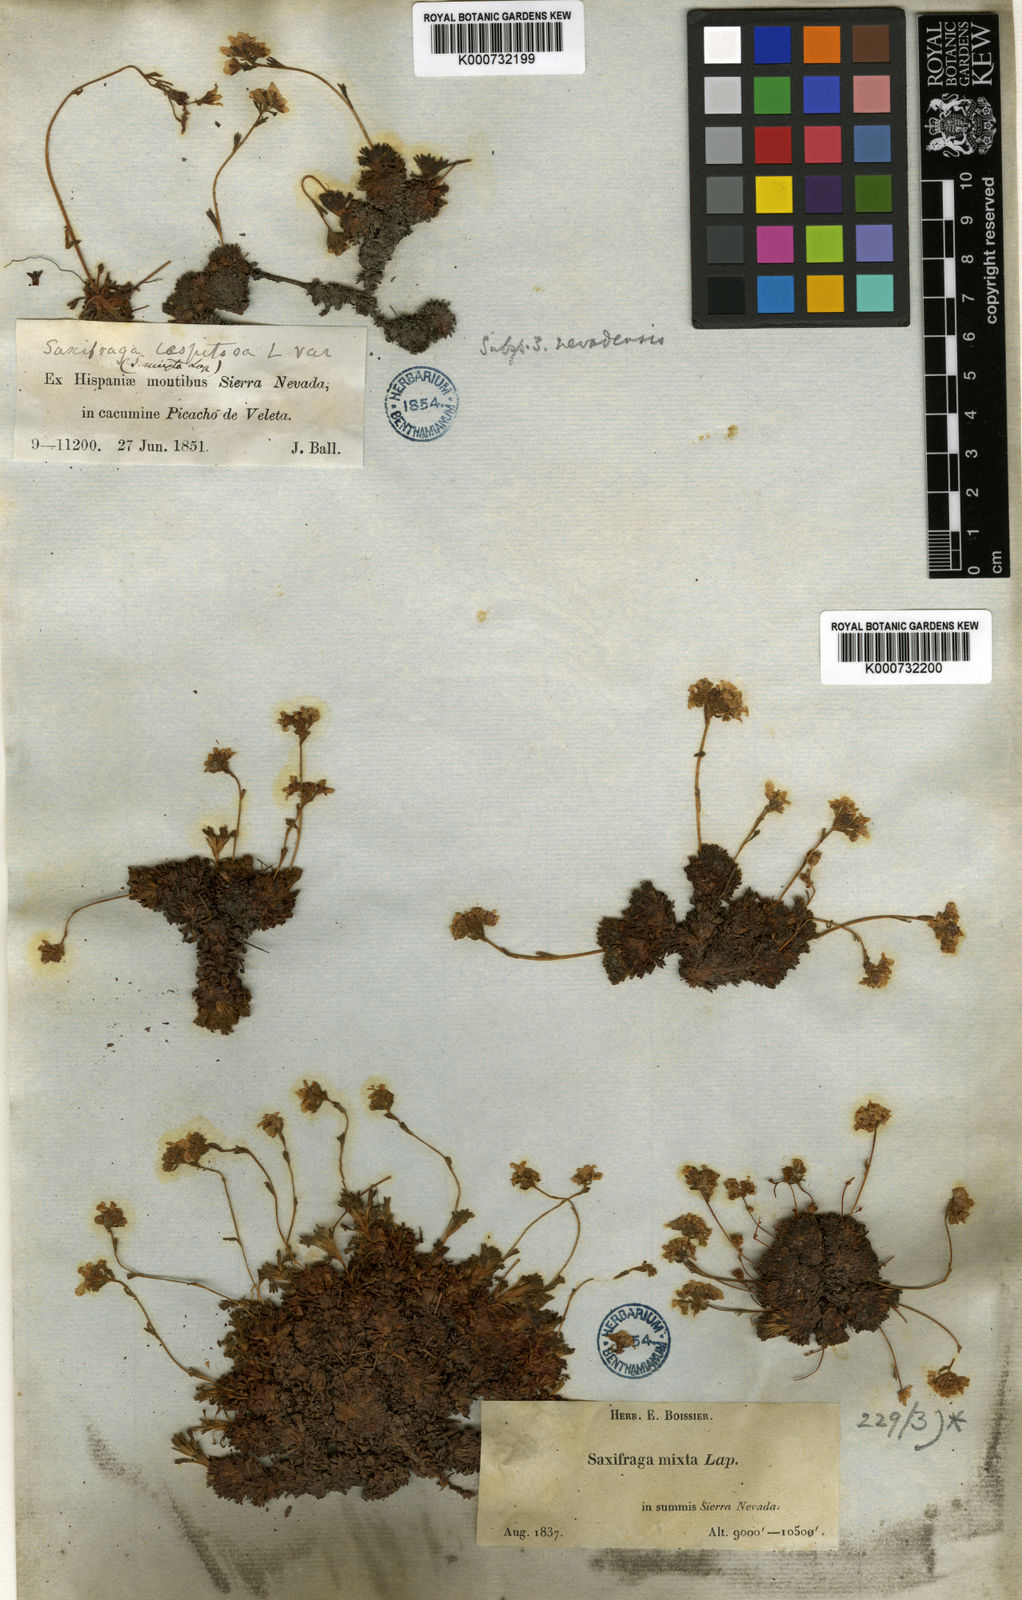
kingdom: Plantae
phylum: Tracheophyta
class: Magnoliopsida
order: Saxifragales
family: Saxifragaceae
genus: Saxifraga
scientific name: Saxifraga nevadensis
